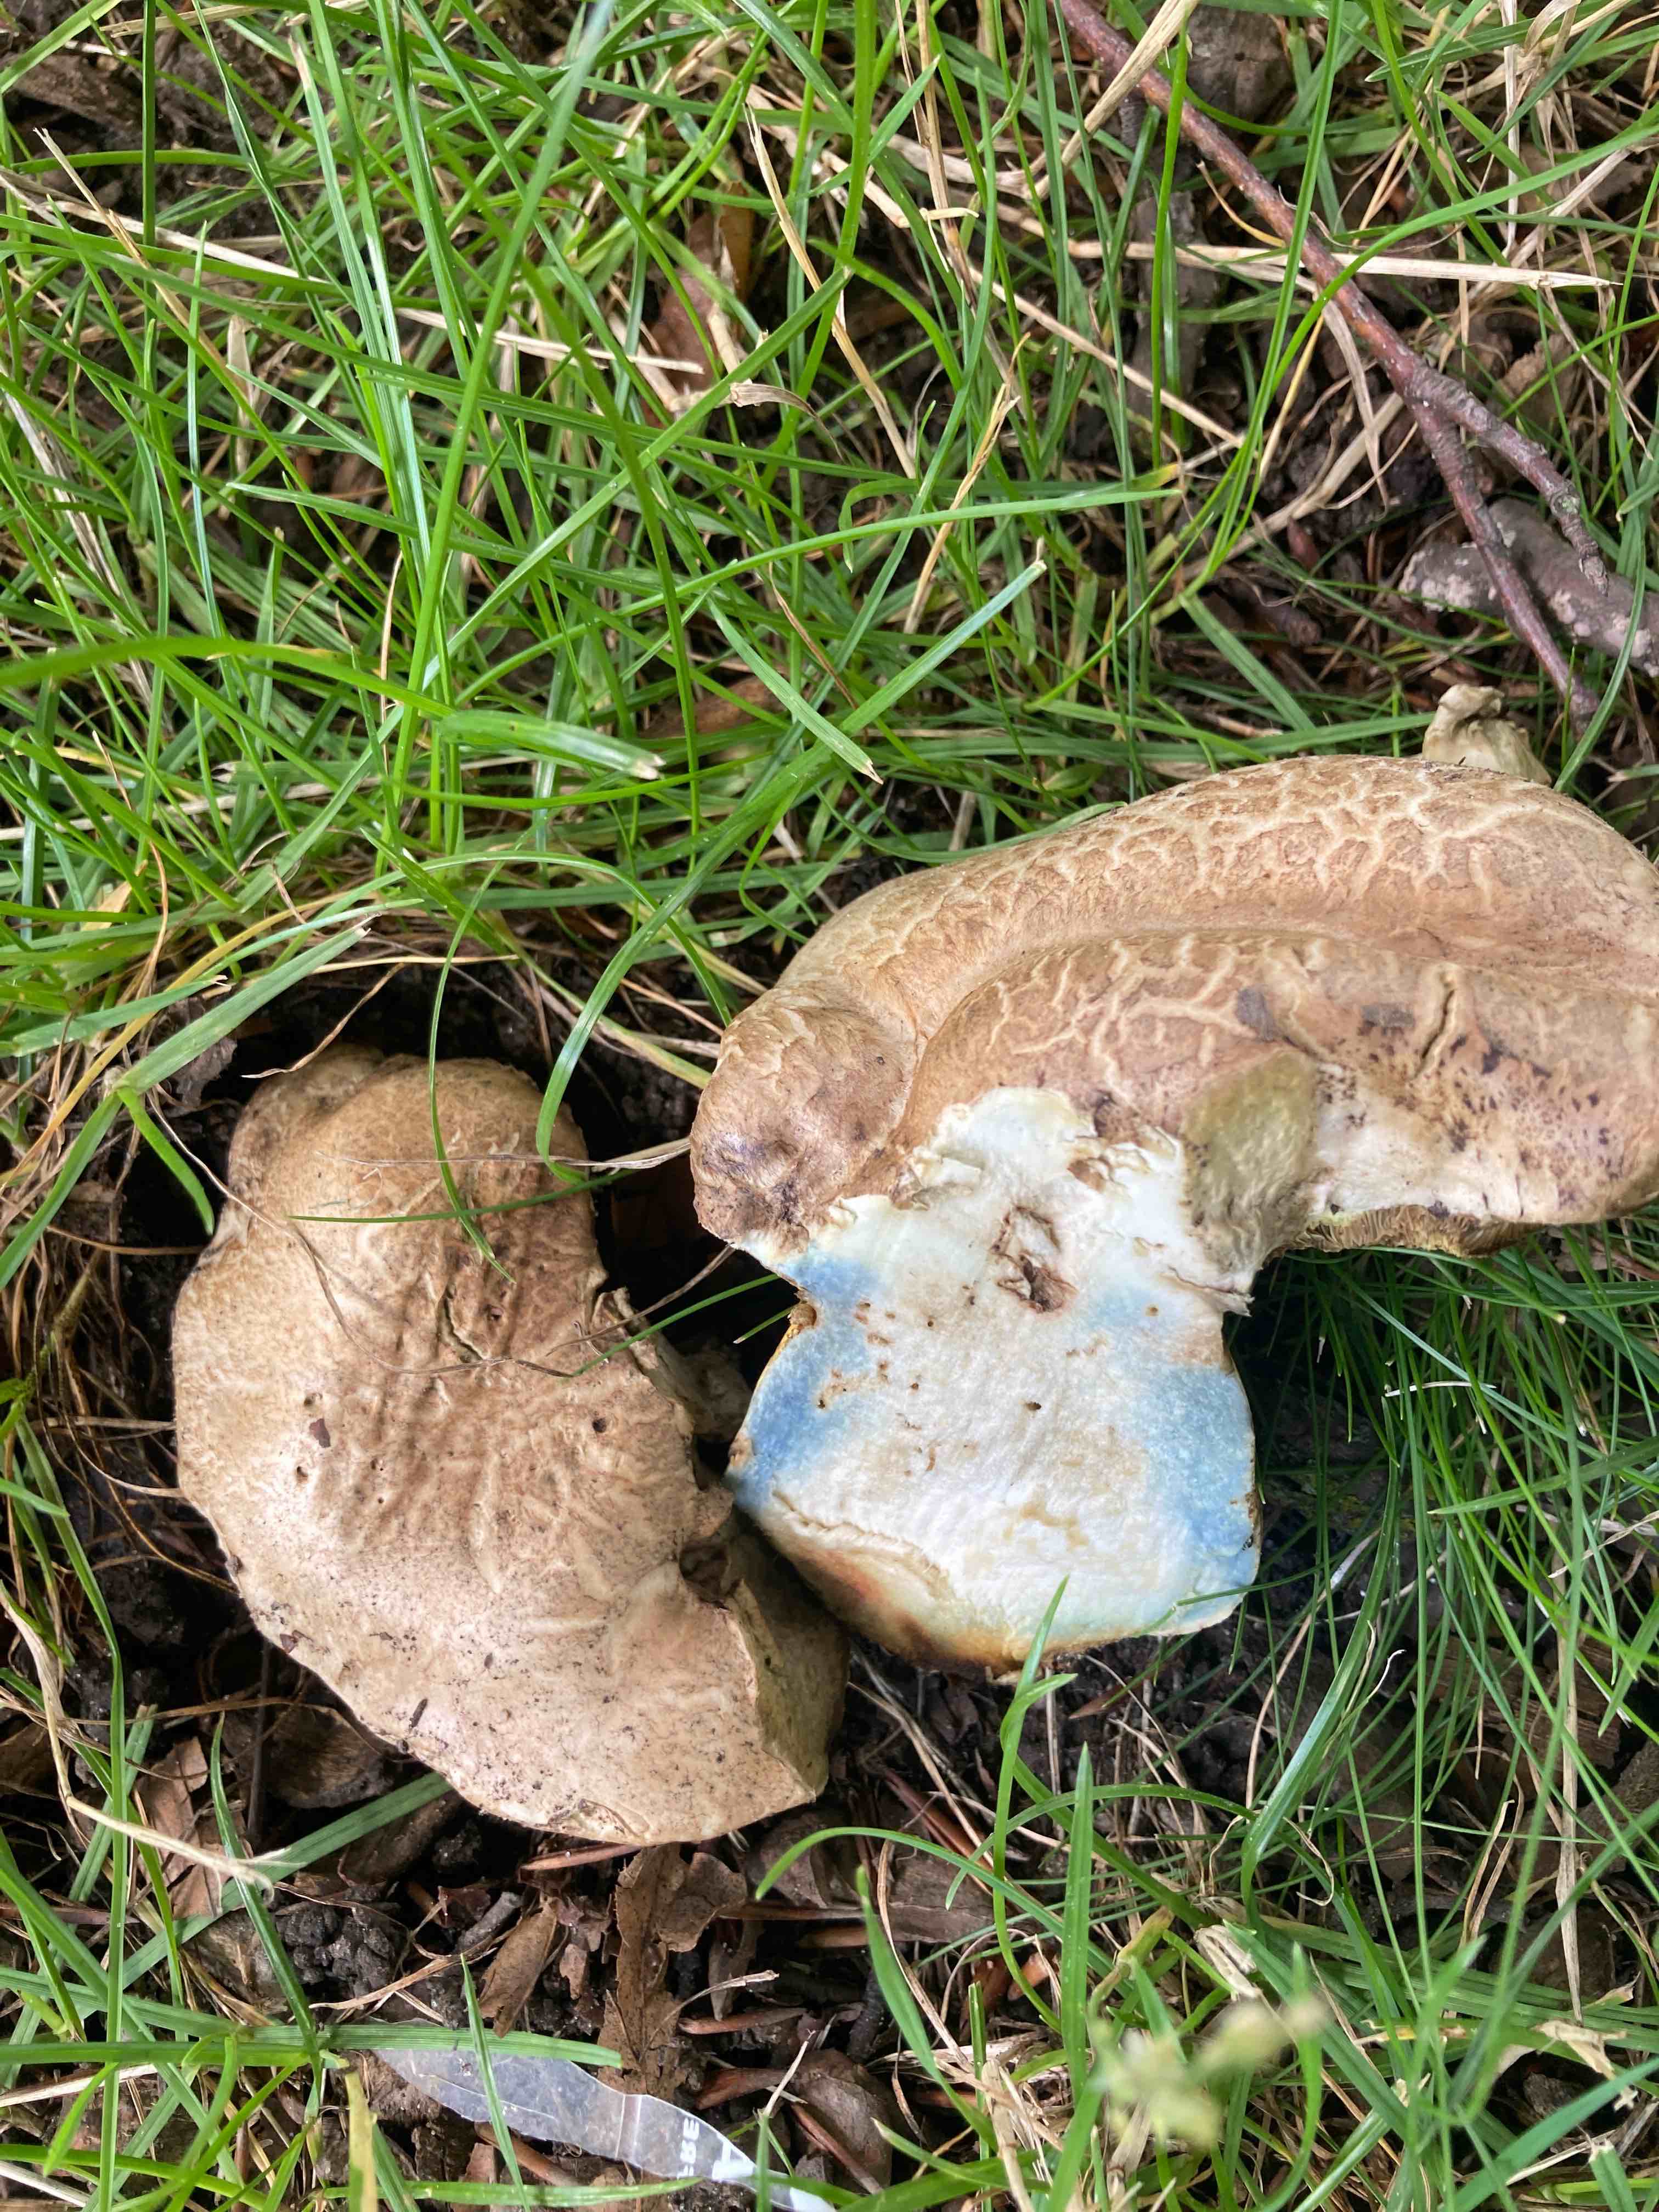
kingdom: Fungi
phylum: Basidiomycota
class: Agaricomycetes
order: Boletales
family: Boletaceae
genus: Caloboletus
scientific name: Caloboletus radicans
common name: rod-rørhat
